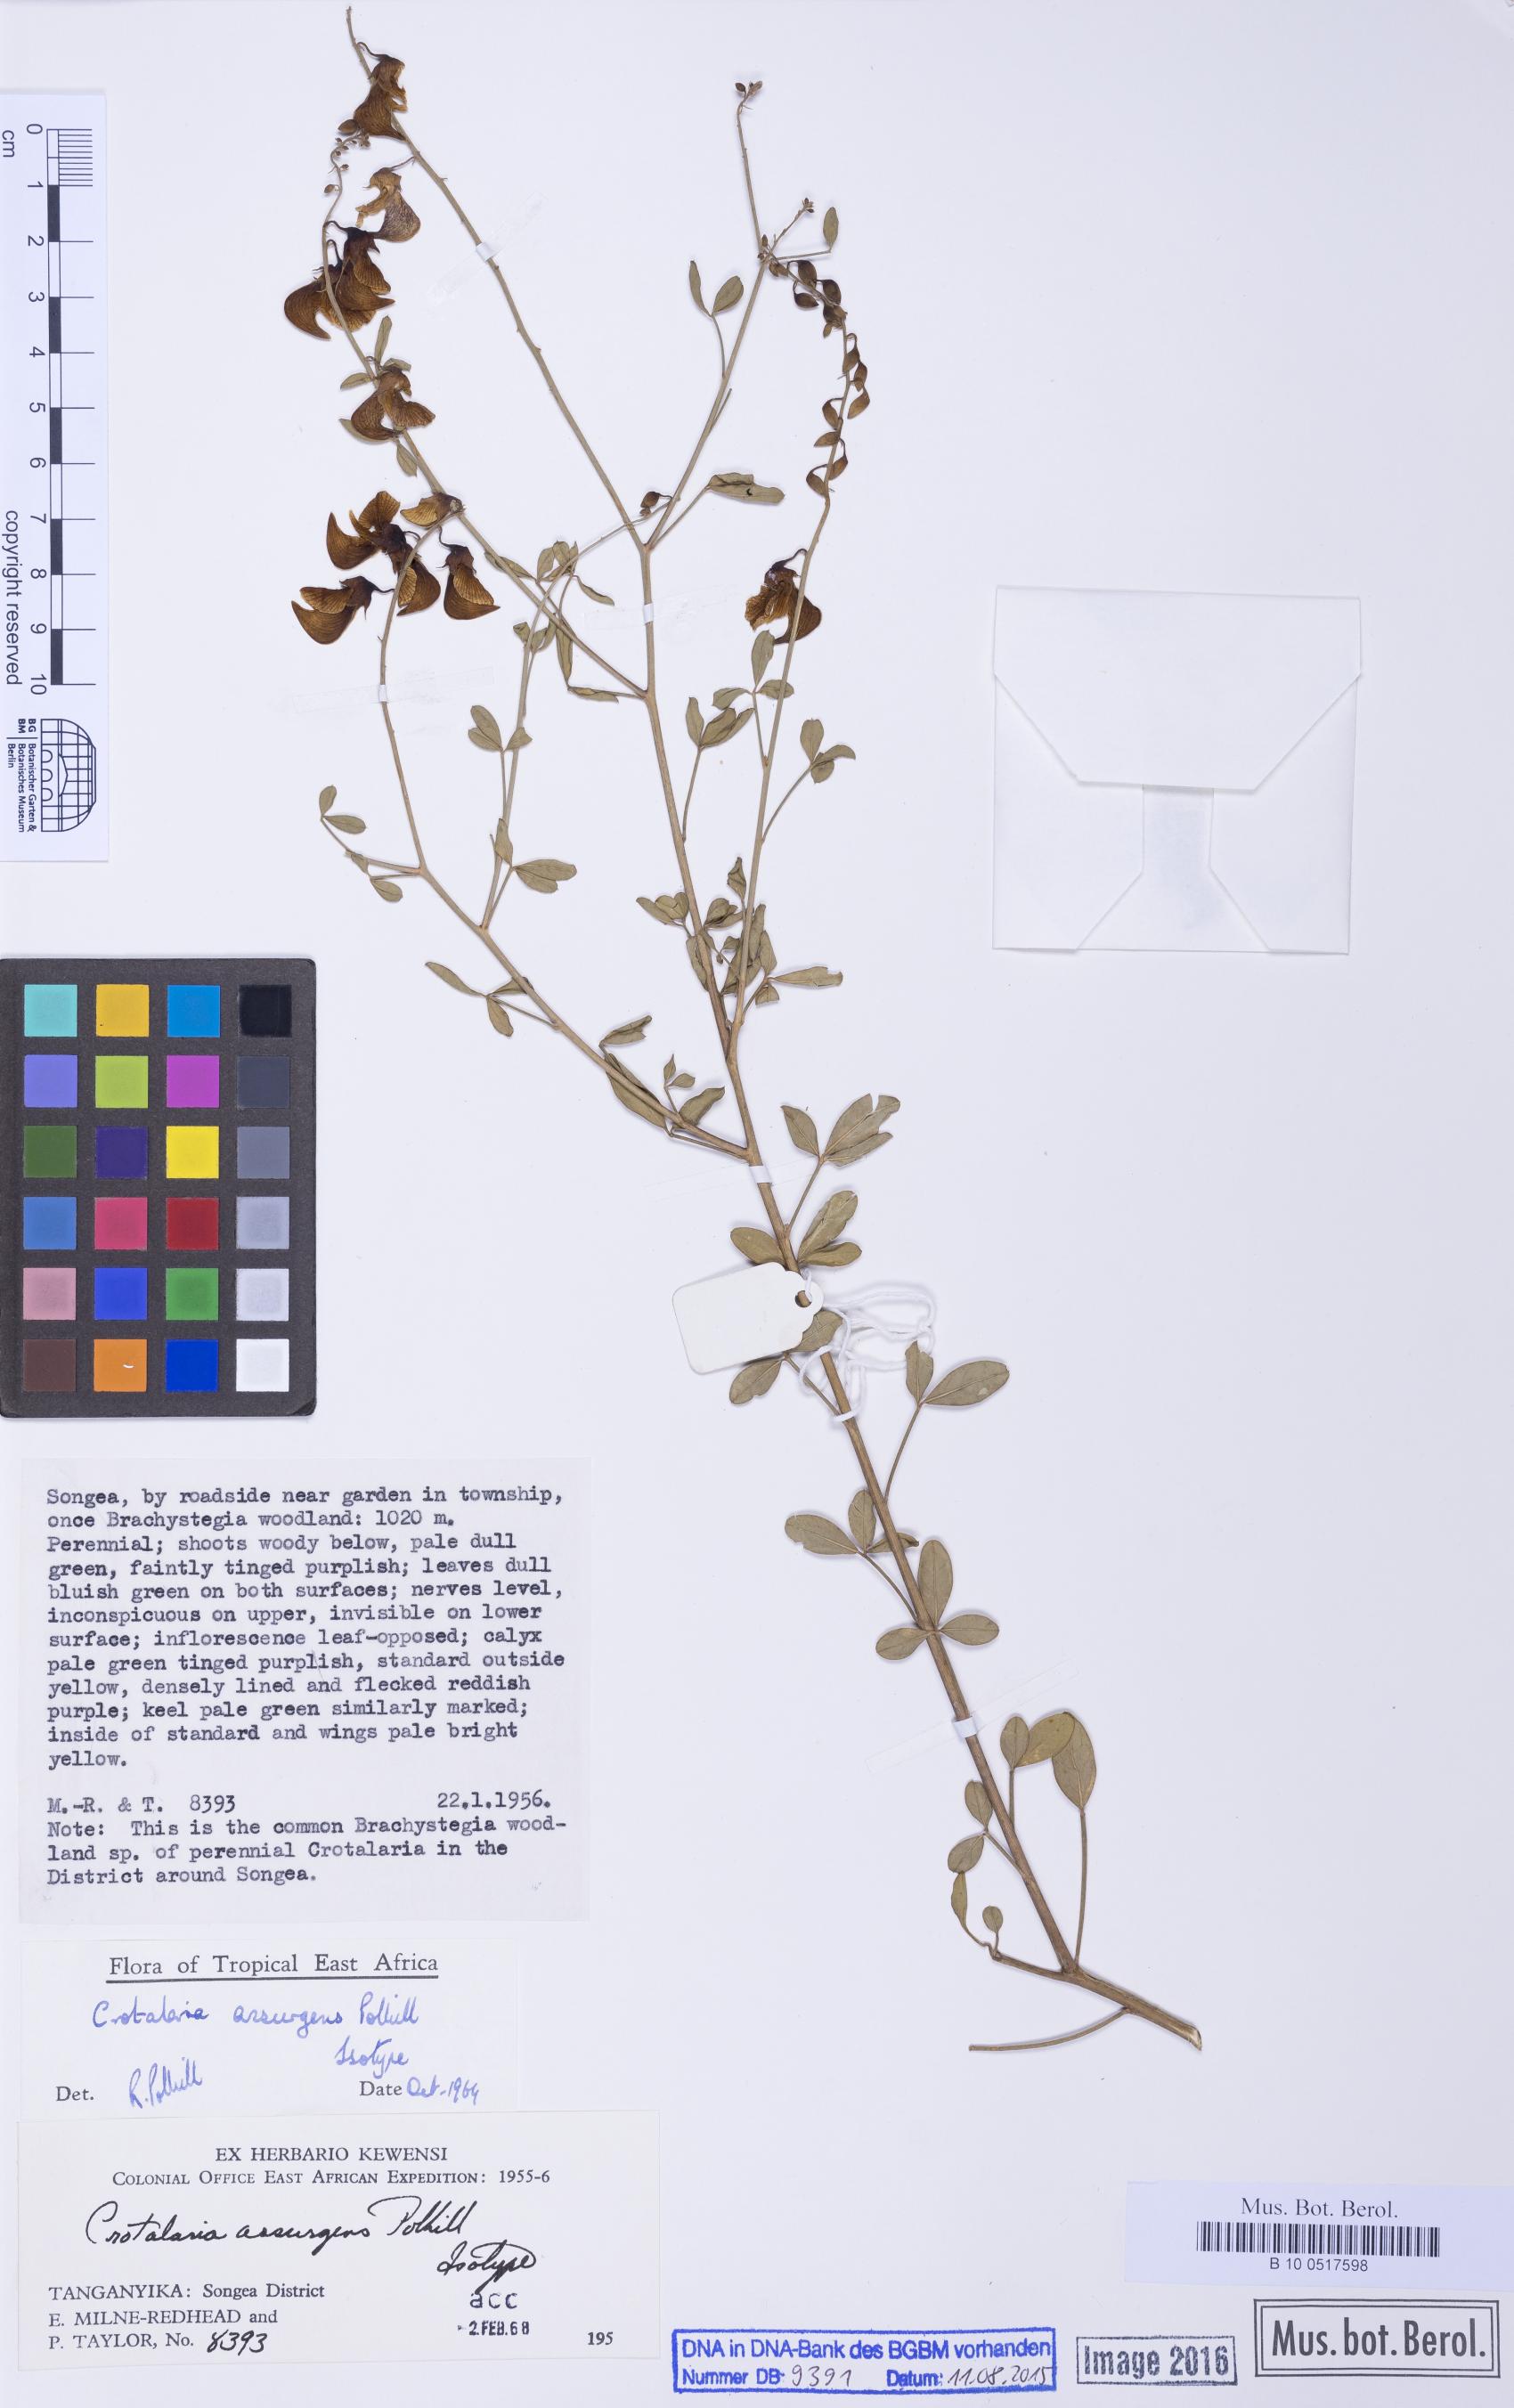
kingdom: Plantae
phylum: Tracheophyta
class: Magnoliopsida
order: Fabales
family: Fabaceae
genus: Crotalaria
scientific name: Crotalaria assurgens
